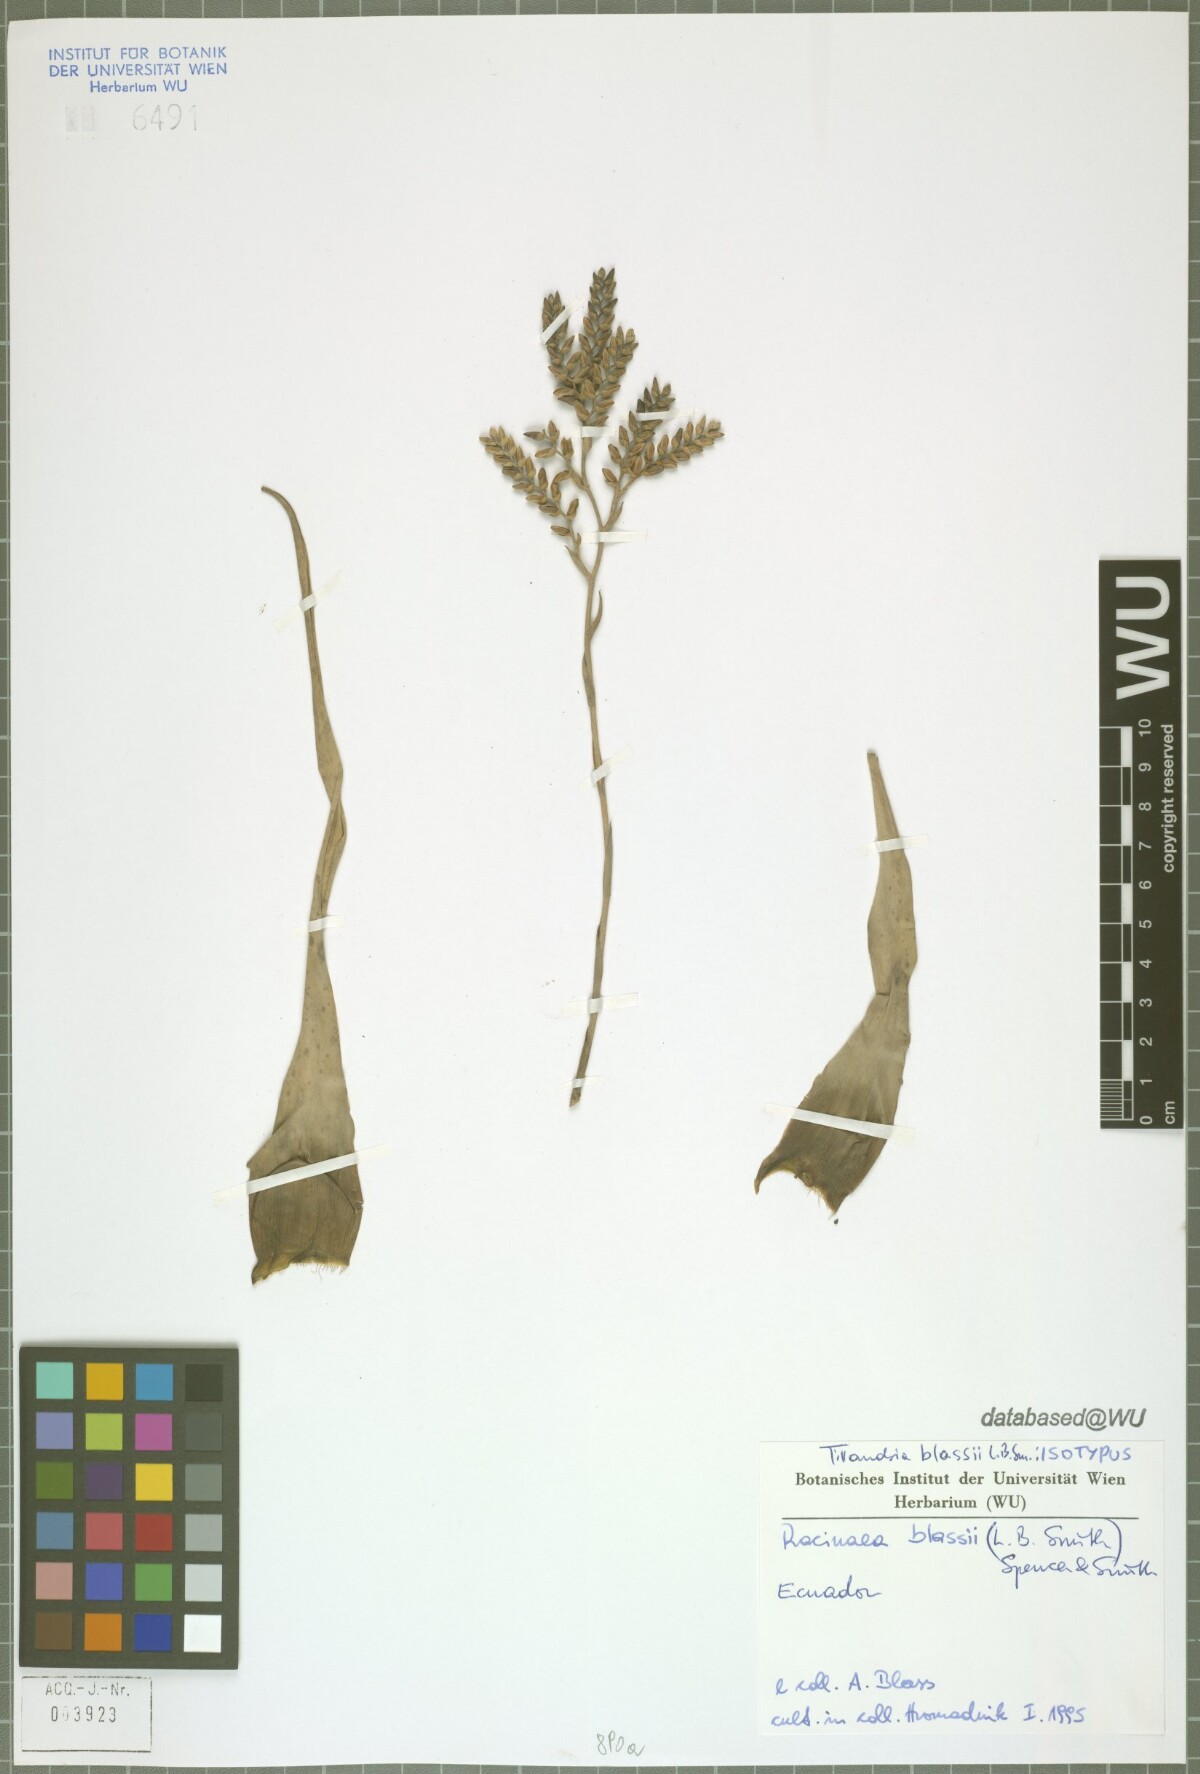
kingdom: Plantae
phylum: Tracheophyta
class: Liliopsida
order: Poales
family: Bromeliaceae
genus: Racinaea
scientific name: Racinaea blassii
